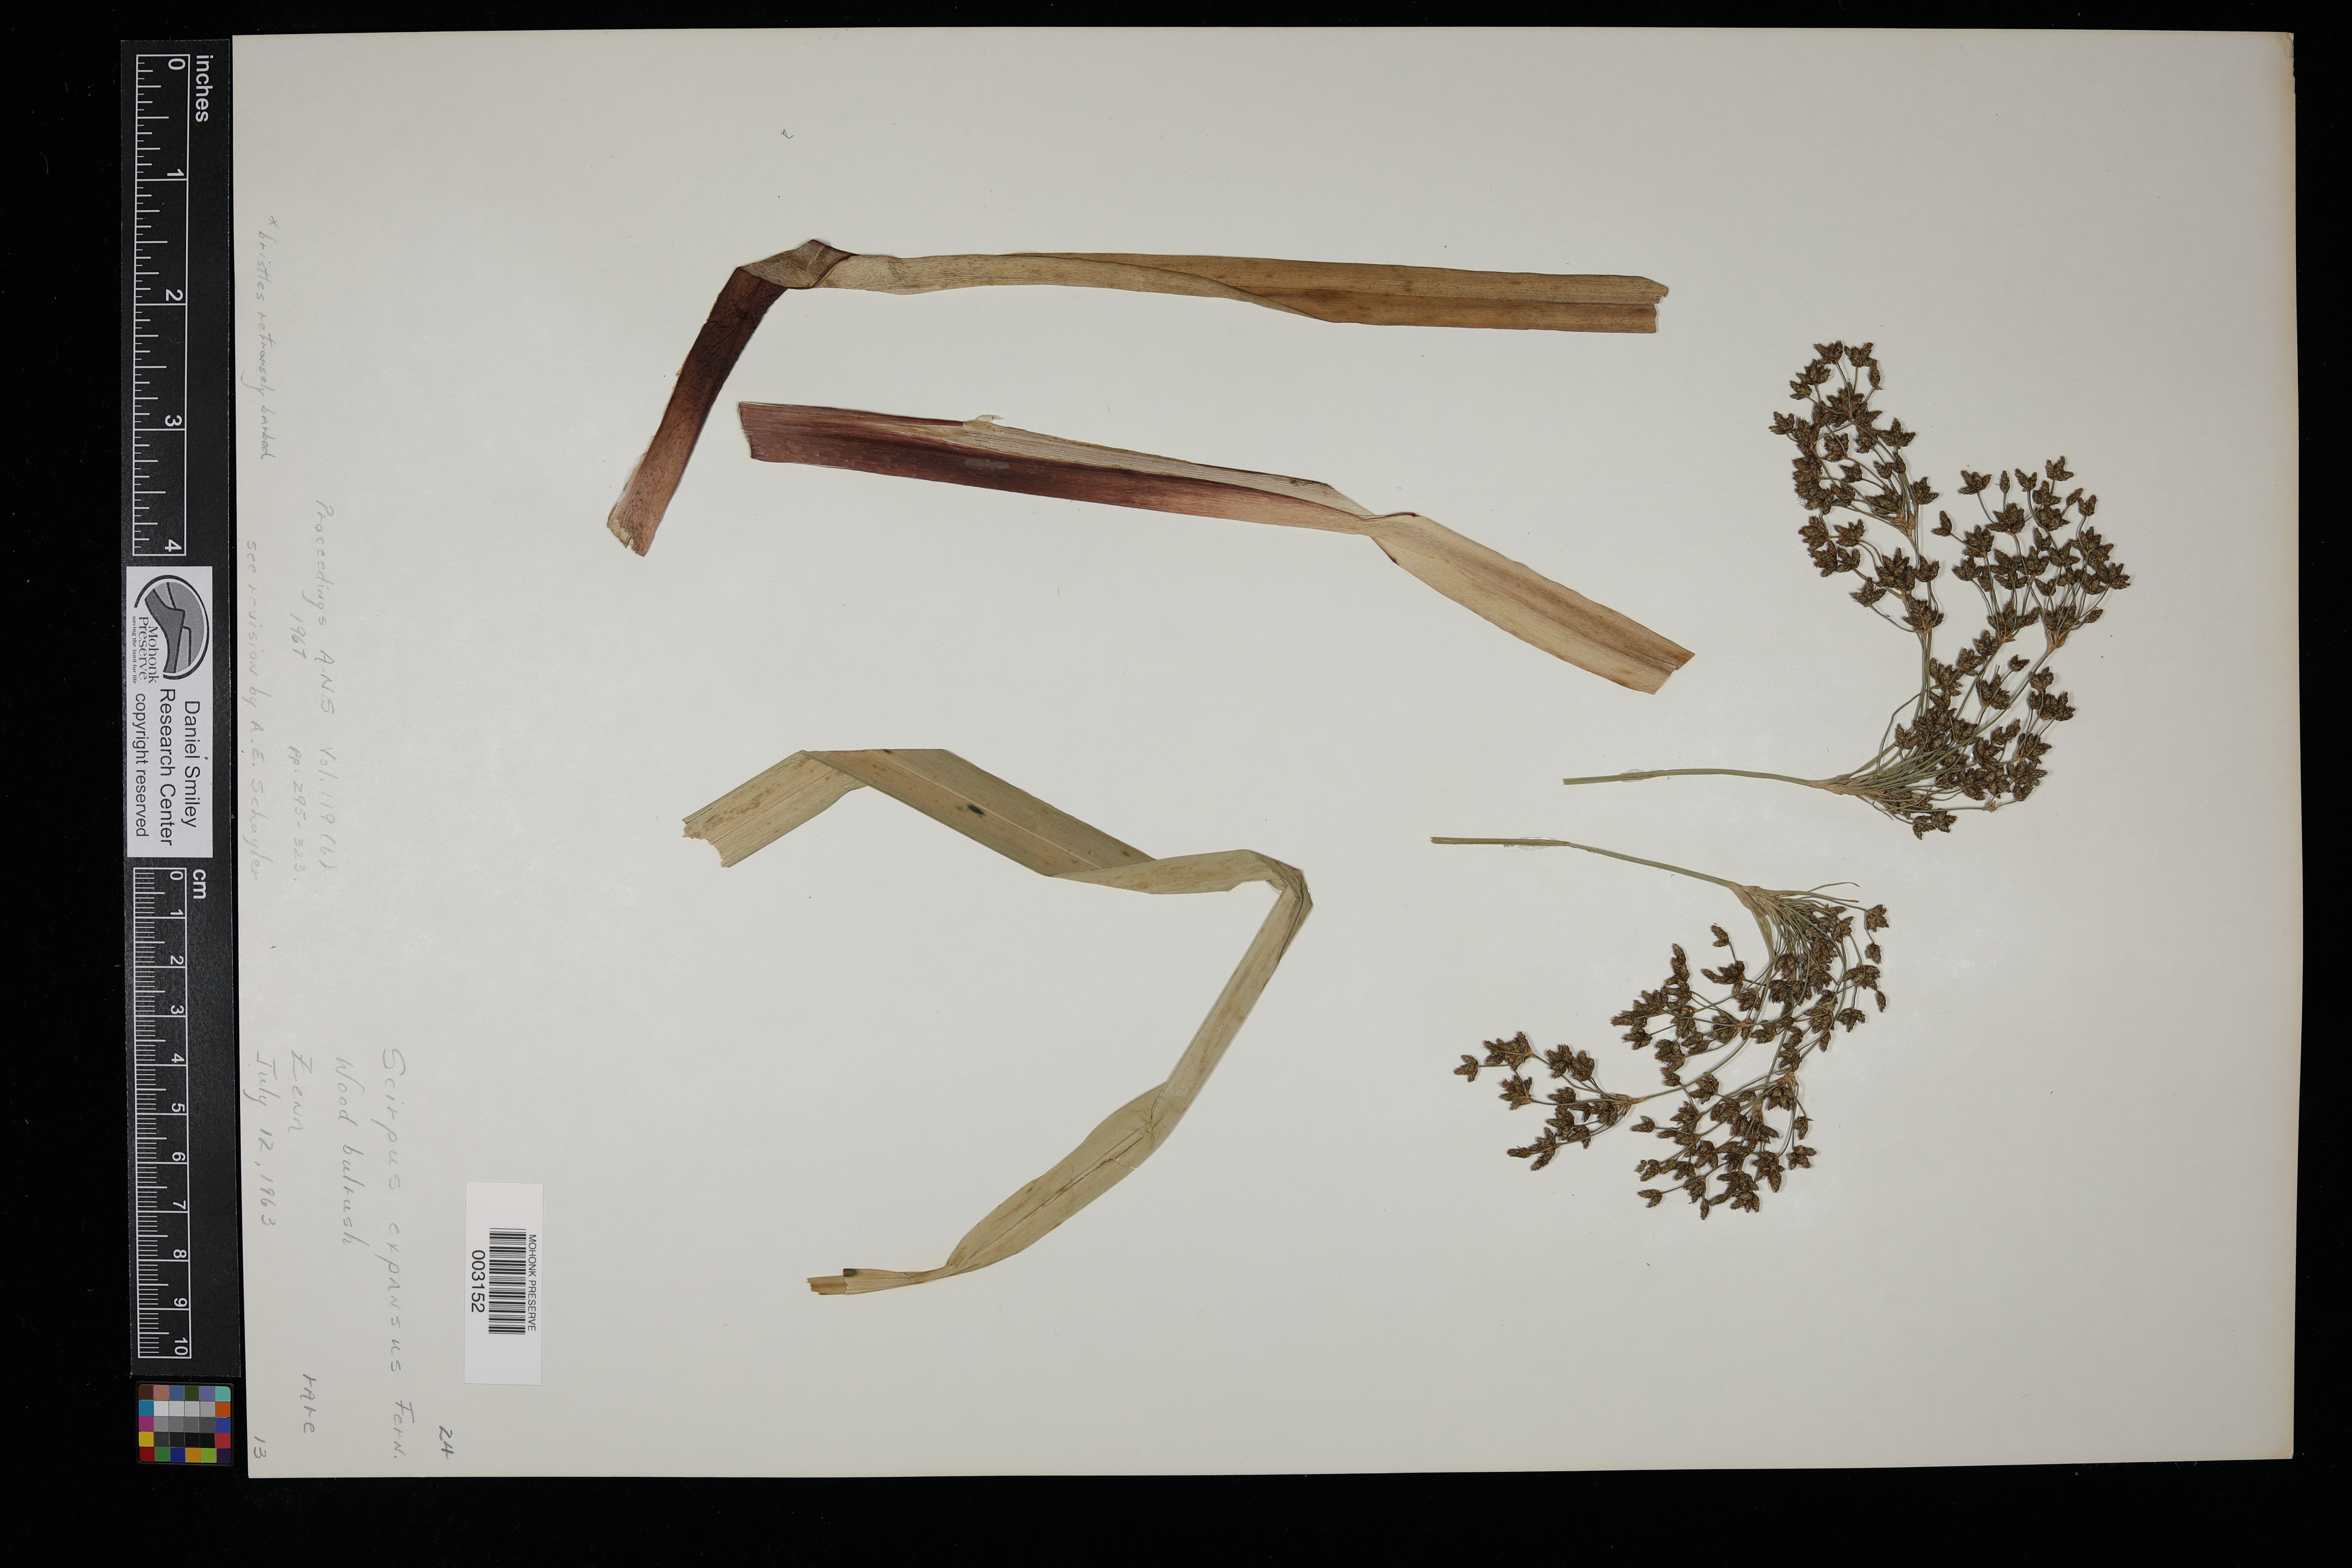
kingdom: Plantae
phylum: Tracheophyta
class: Liliopsida
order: Poales
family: Cyperaceae
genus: Scirpus
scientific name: Scirpus expansus
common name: Woodland bulrush
